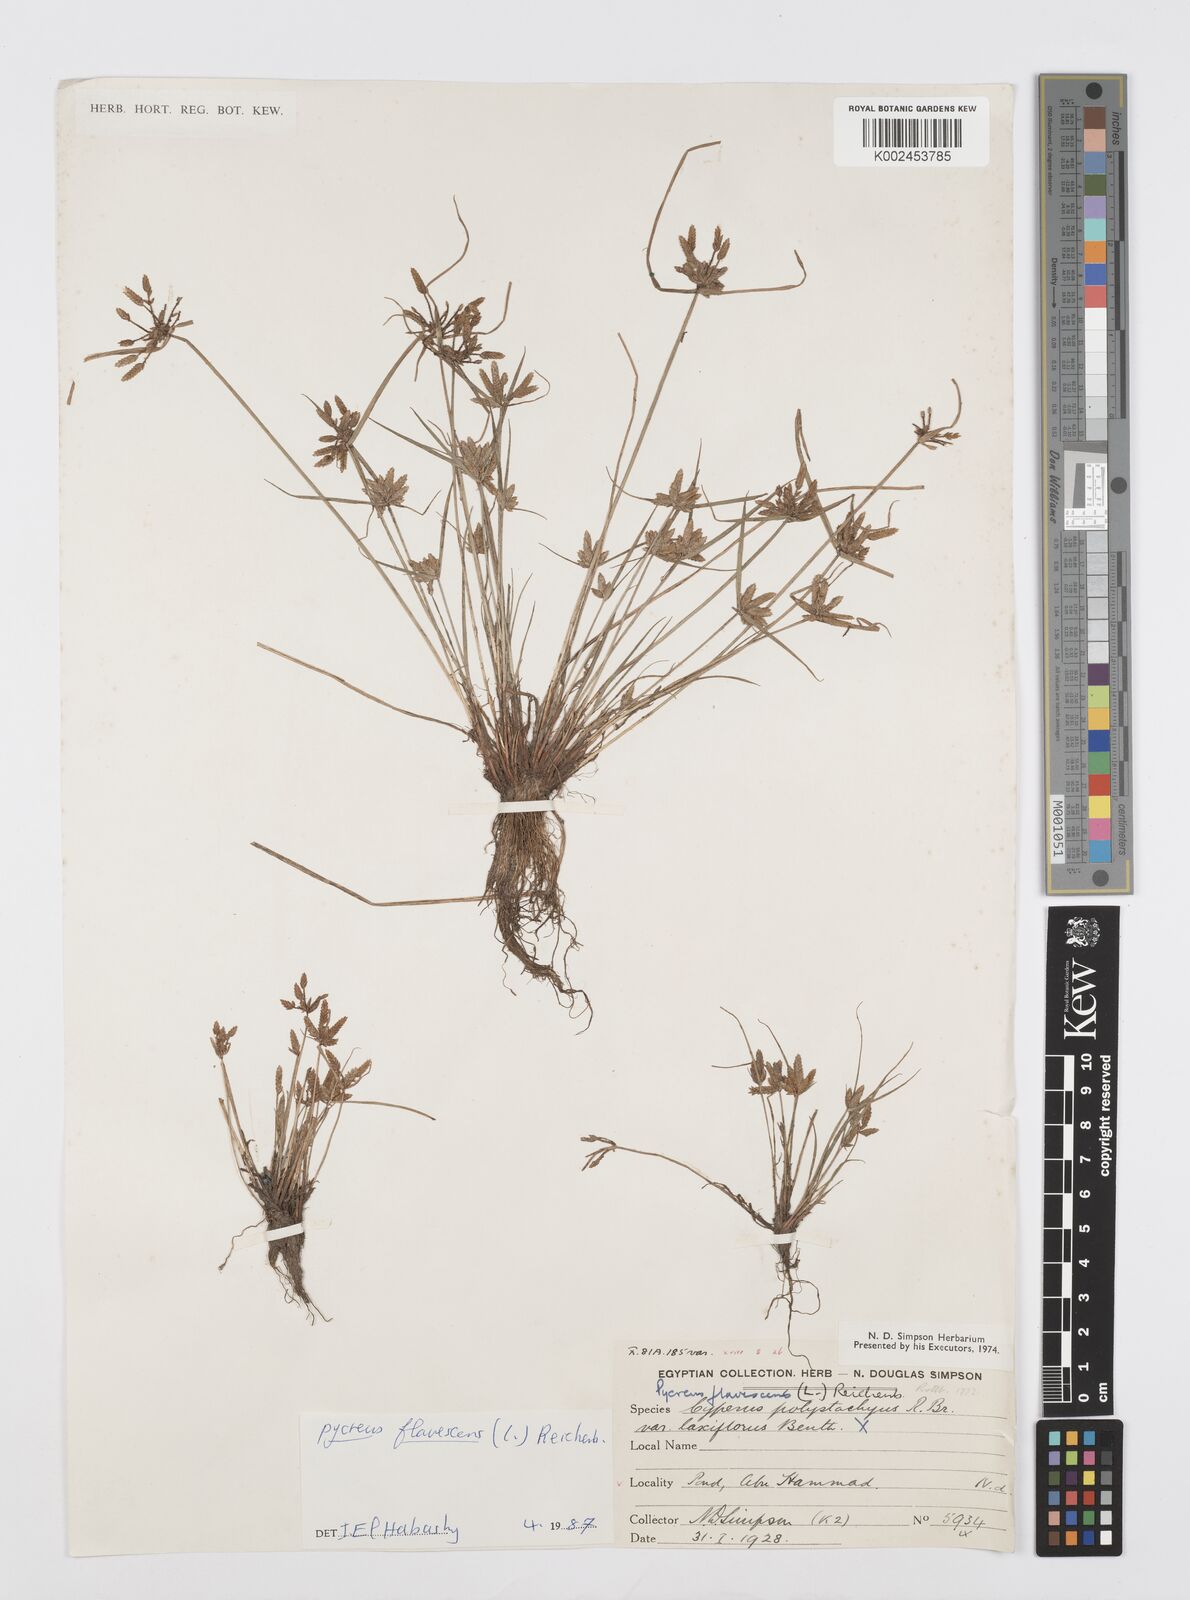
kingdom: Plantae
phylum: Tracheophyta
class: Liliopsida
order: Poales
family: Cyperaceae
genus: Cyperus
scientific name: Cyperus flavescens
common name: Yellow galingale
